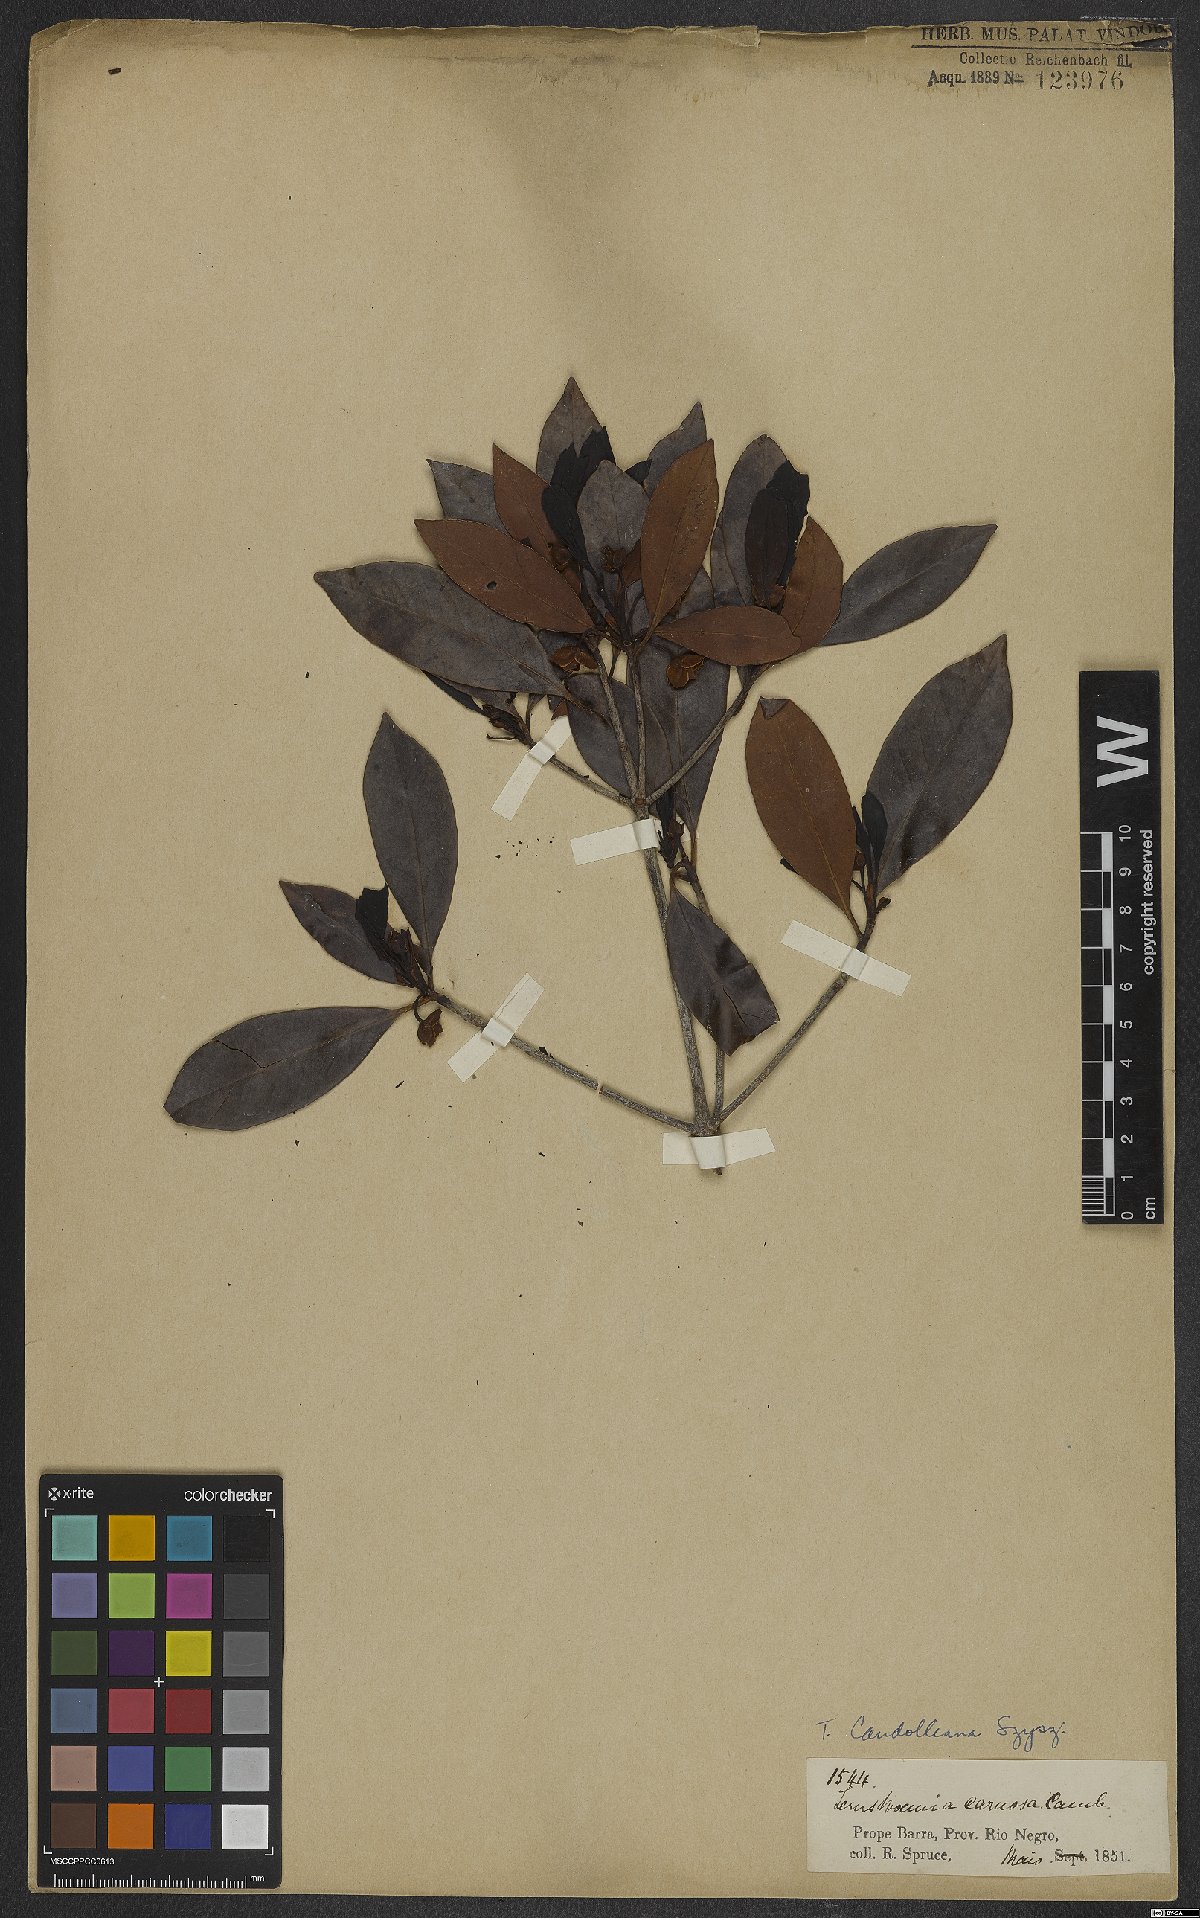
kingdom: Plantae
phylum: Tracheophyta
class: Magnoliopsida
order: Ericales
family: Pentaphylacaceae
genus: Ternstroemia
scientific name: Ternstroemia candolleana
